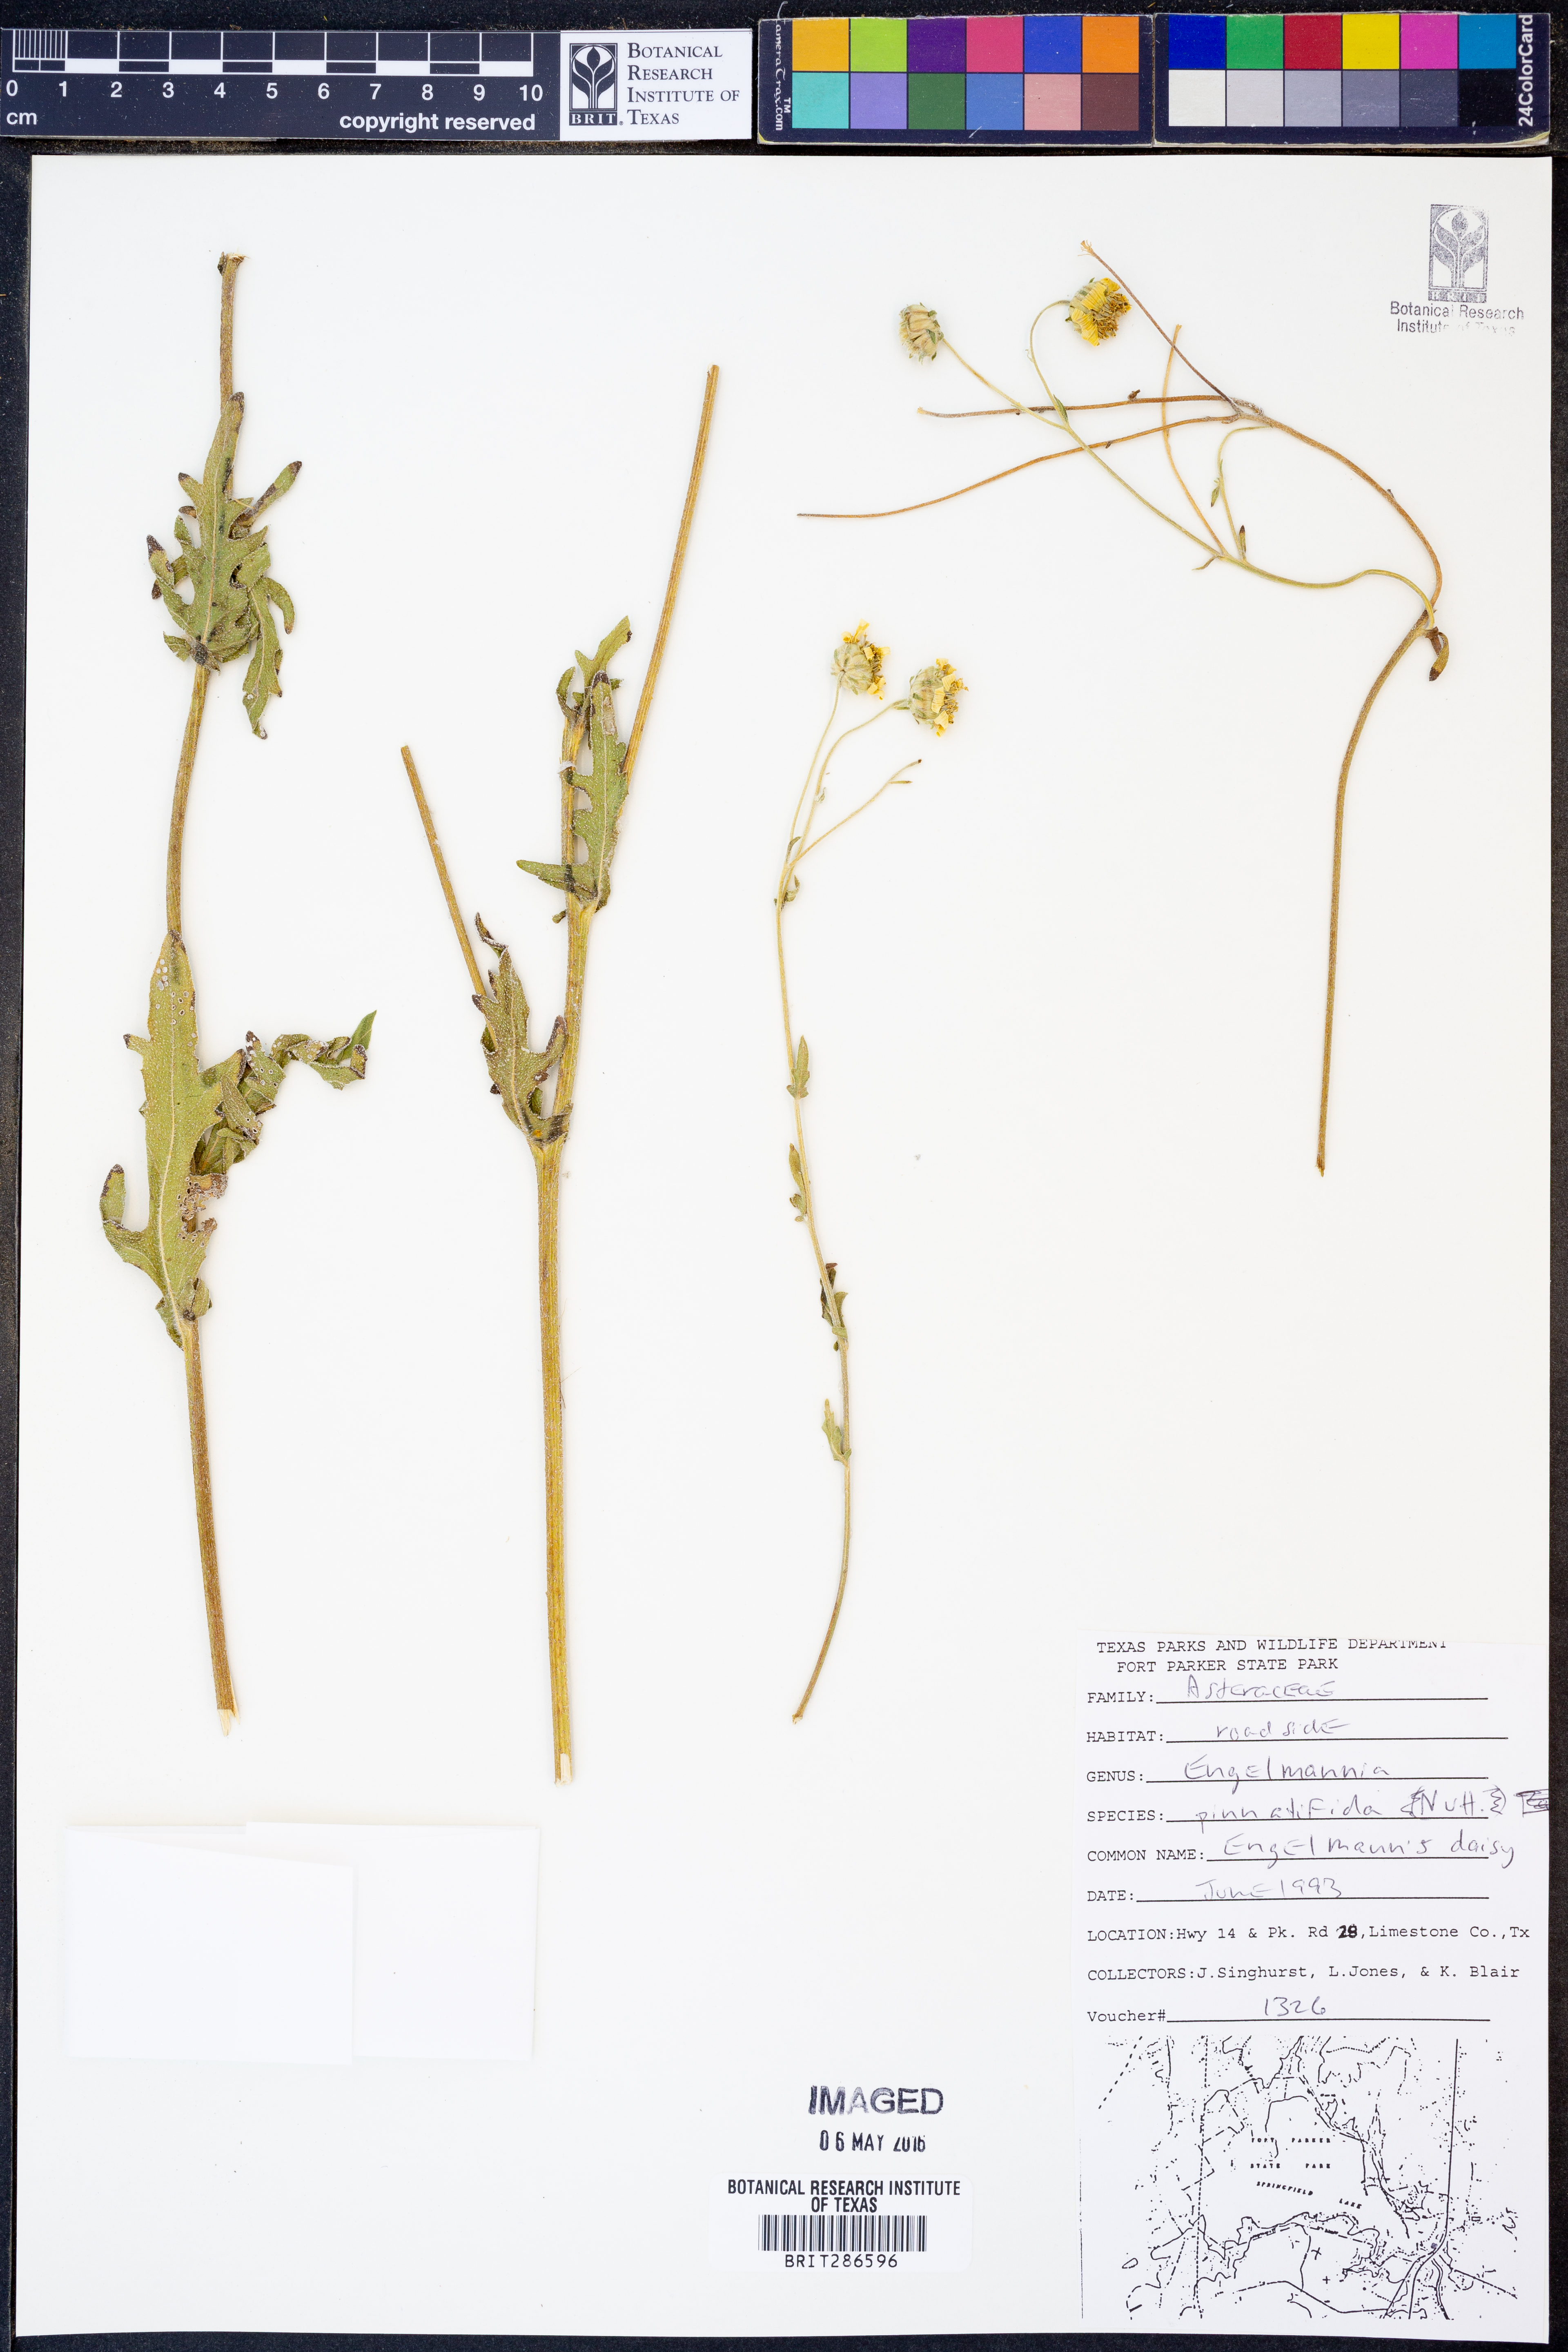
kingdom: Plantae
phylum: Tracheophyta
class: Magnoliopsida
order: Asterales
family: Asteraceae
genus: Engelmannia
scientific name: Engelmannia peristenia
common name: Engelmann's daisy
